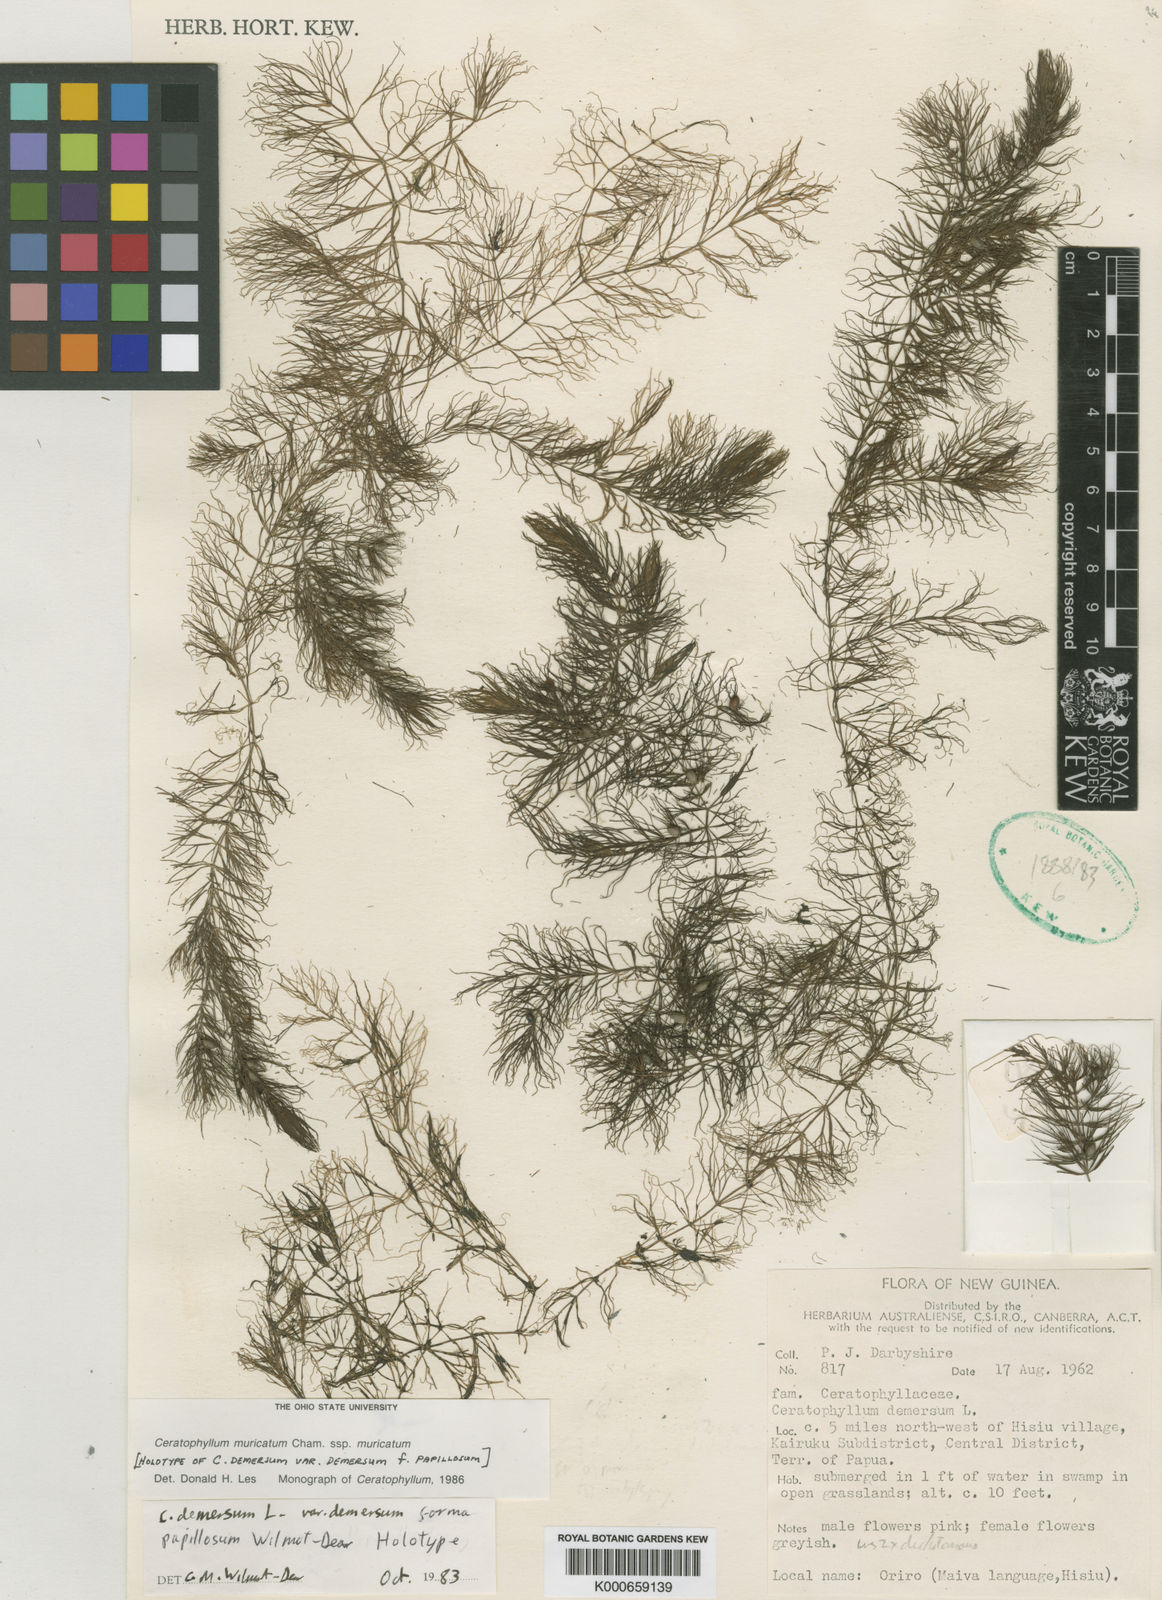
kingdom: Plantae
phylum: Tracheophyta
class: Magnoliopsida
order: Ceratophyllales
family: Ceratophyllaceae
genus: Ceratophyllum
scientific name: Ceratophyllum demersum
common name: Rigid hornwort
